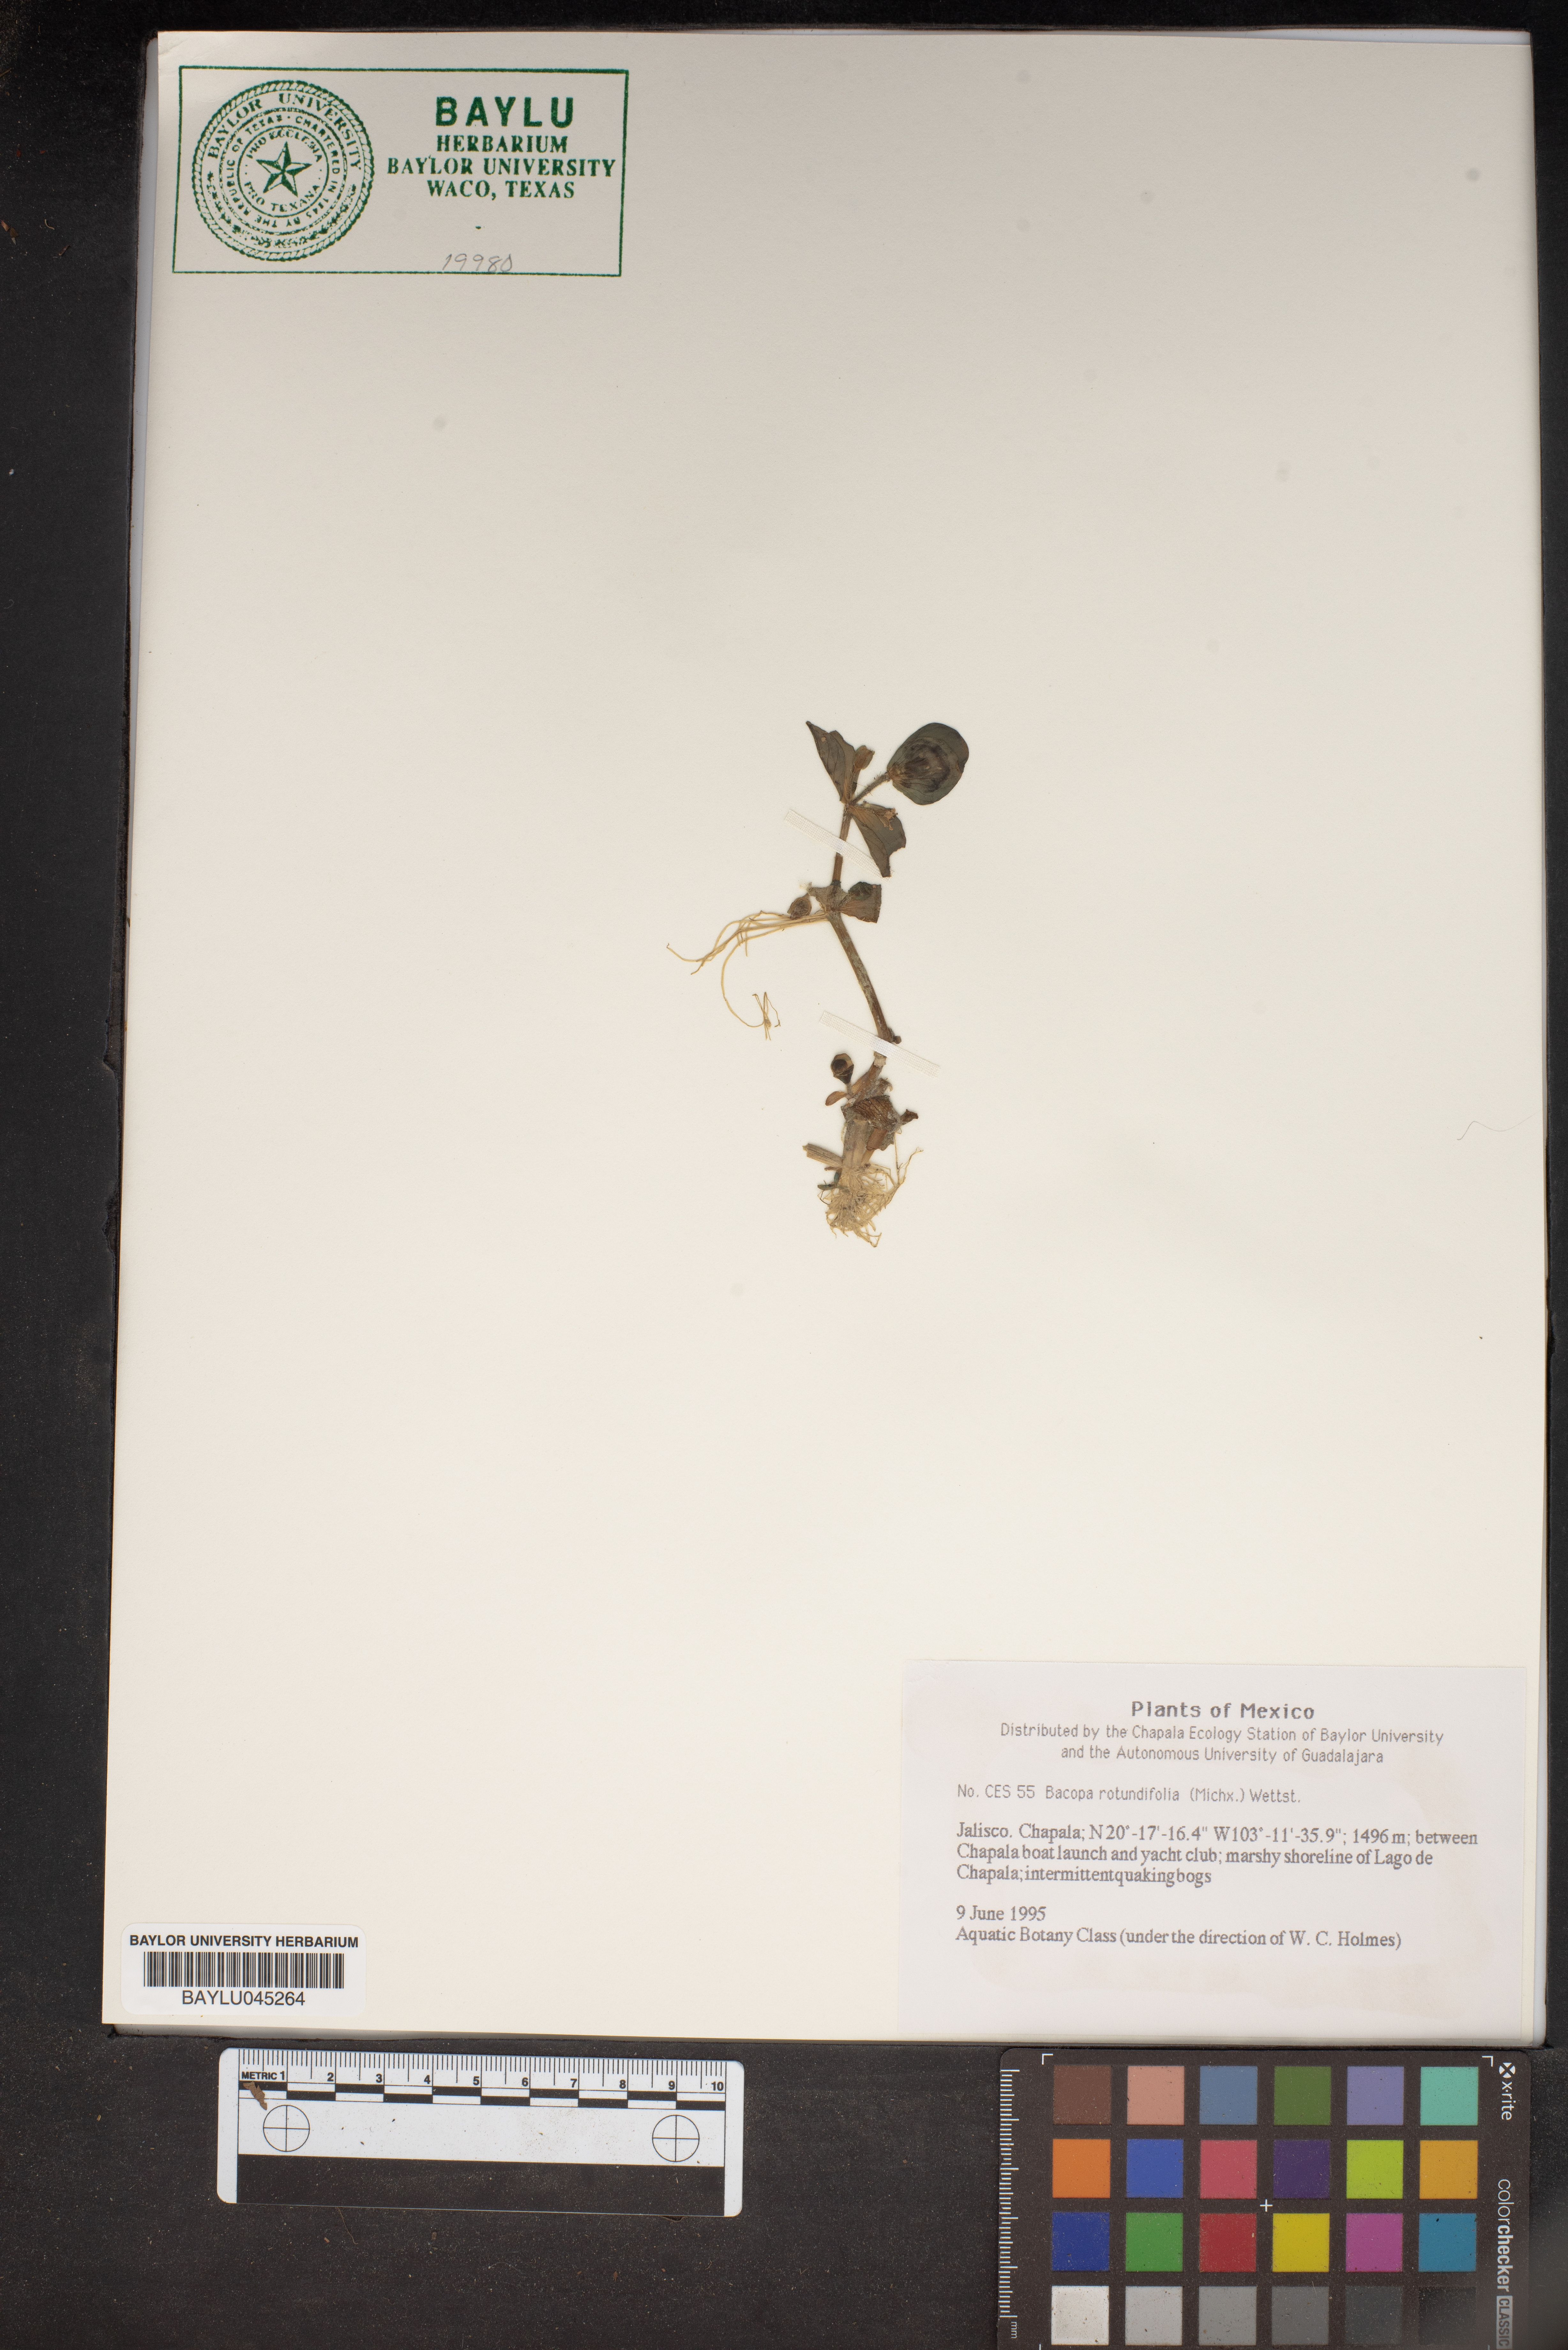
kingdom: Plantae
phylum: Tracheophyta
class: Magnoliopsida
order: Lamiales
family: Plantaginaceae
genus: Bacopa
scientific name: Bacopa rotundifolia
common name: Disc water hyssop
